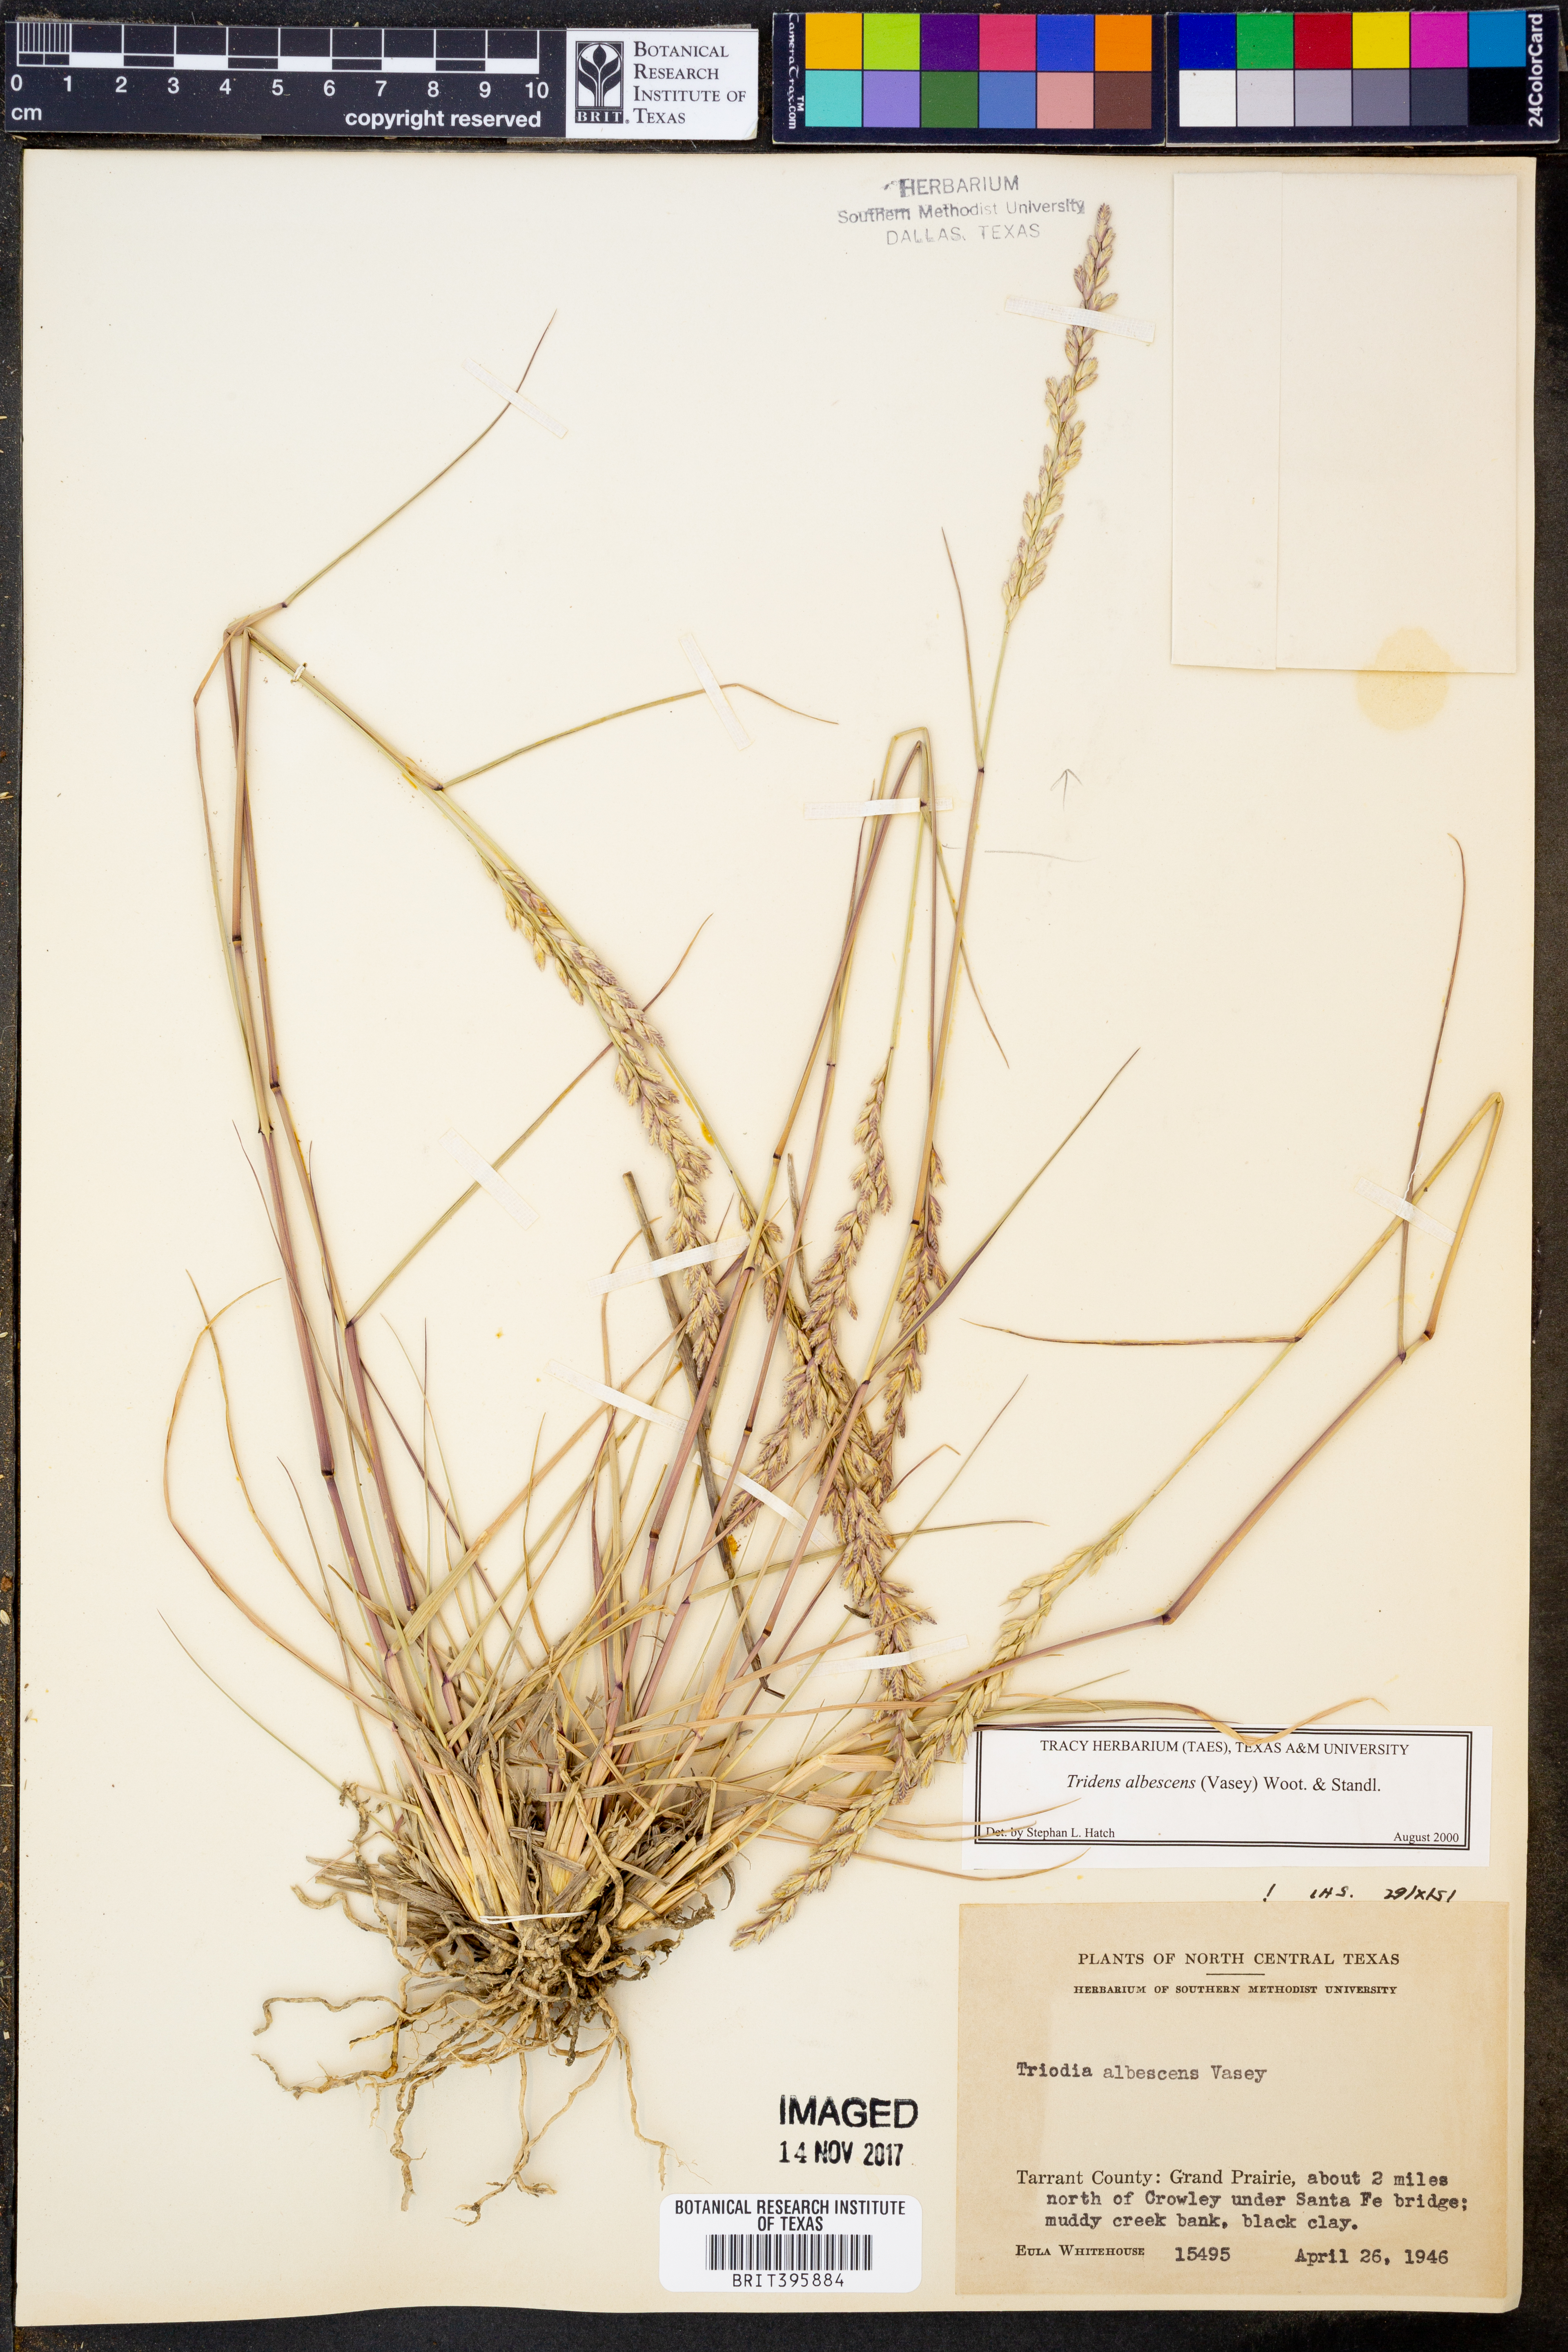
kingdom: Plantae
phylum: Tracheophyta
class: Liliopsida
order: Poales
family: Poaceae
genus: Tridens
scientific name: Tridens albescens
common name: White tridens
